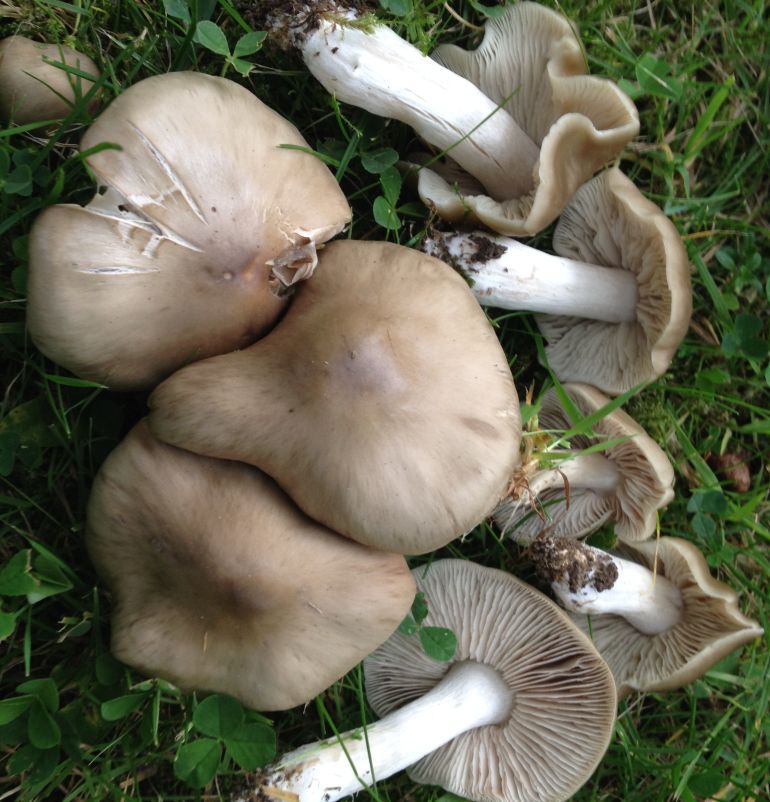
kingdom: Fungi
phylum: Basidiomycota
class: Agaricomycetes
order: Agaricales
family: Entolomataceae
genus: Entoloma
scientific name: Entoloma lividoalbum
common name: lysstokket rødblad
